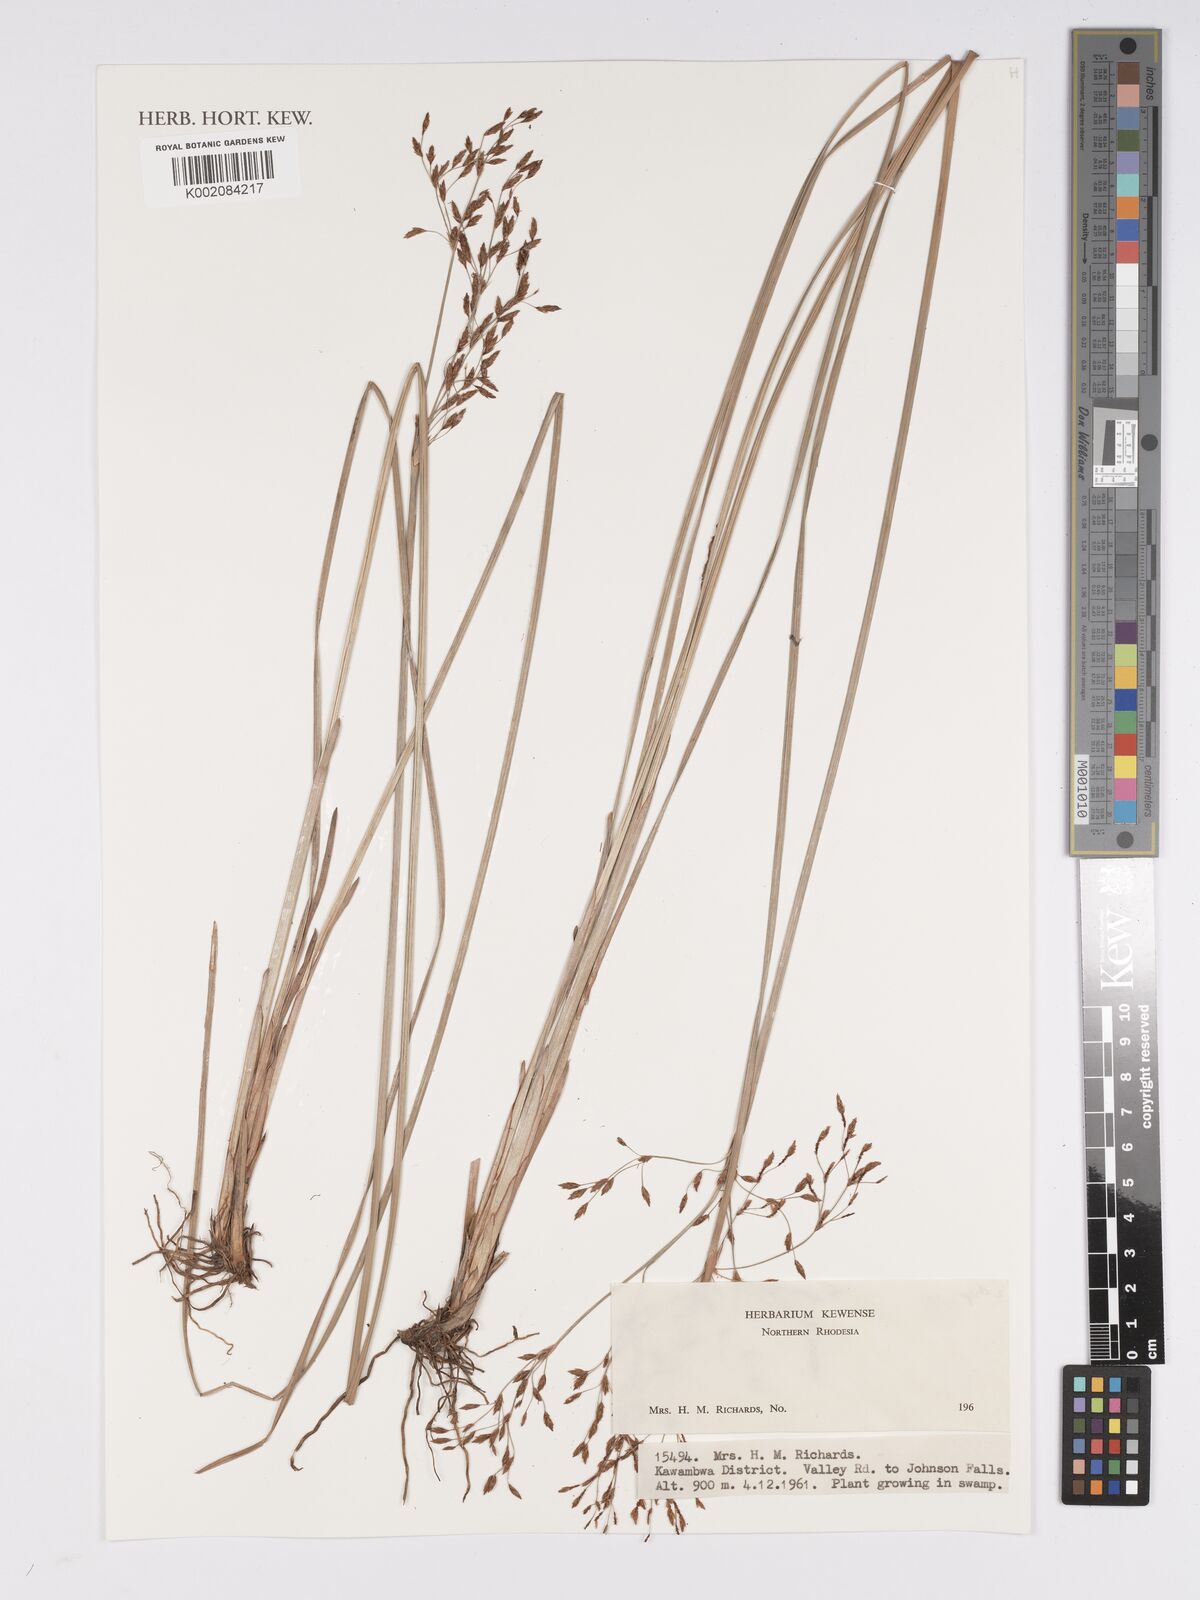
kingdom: Plantae
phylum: Tracheophyta
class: Liliopsida
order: Poales
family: Cyperaceae
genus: Bulbostylis
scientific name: Bulbostylis
